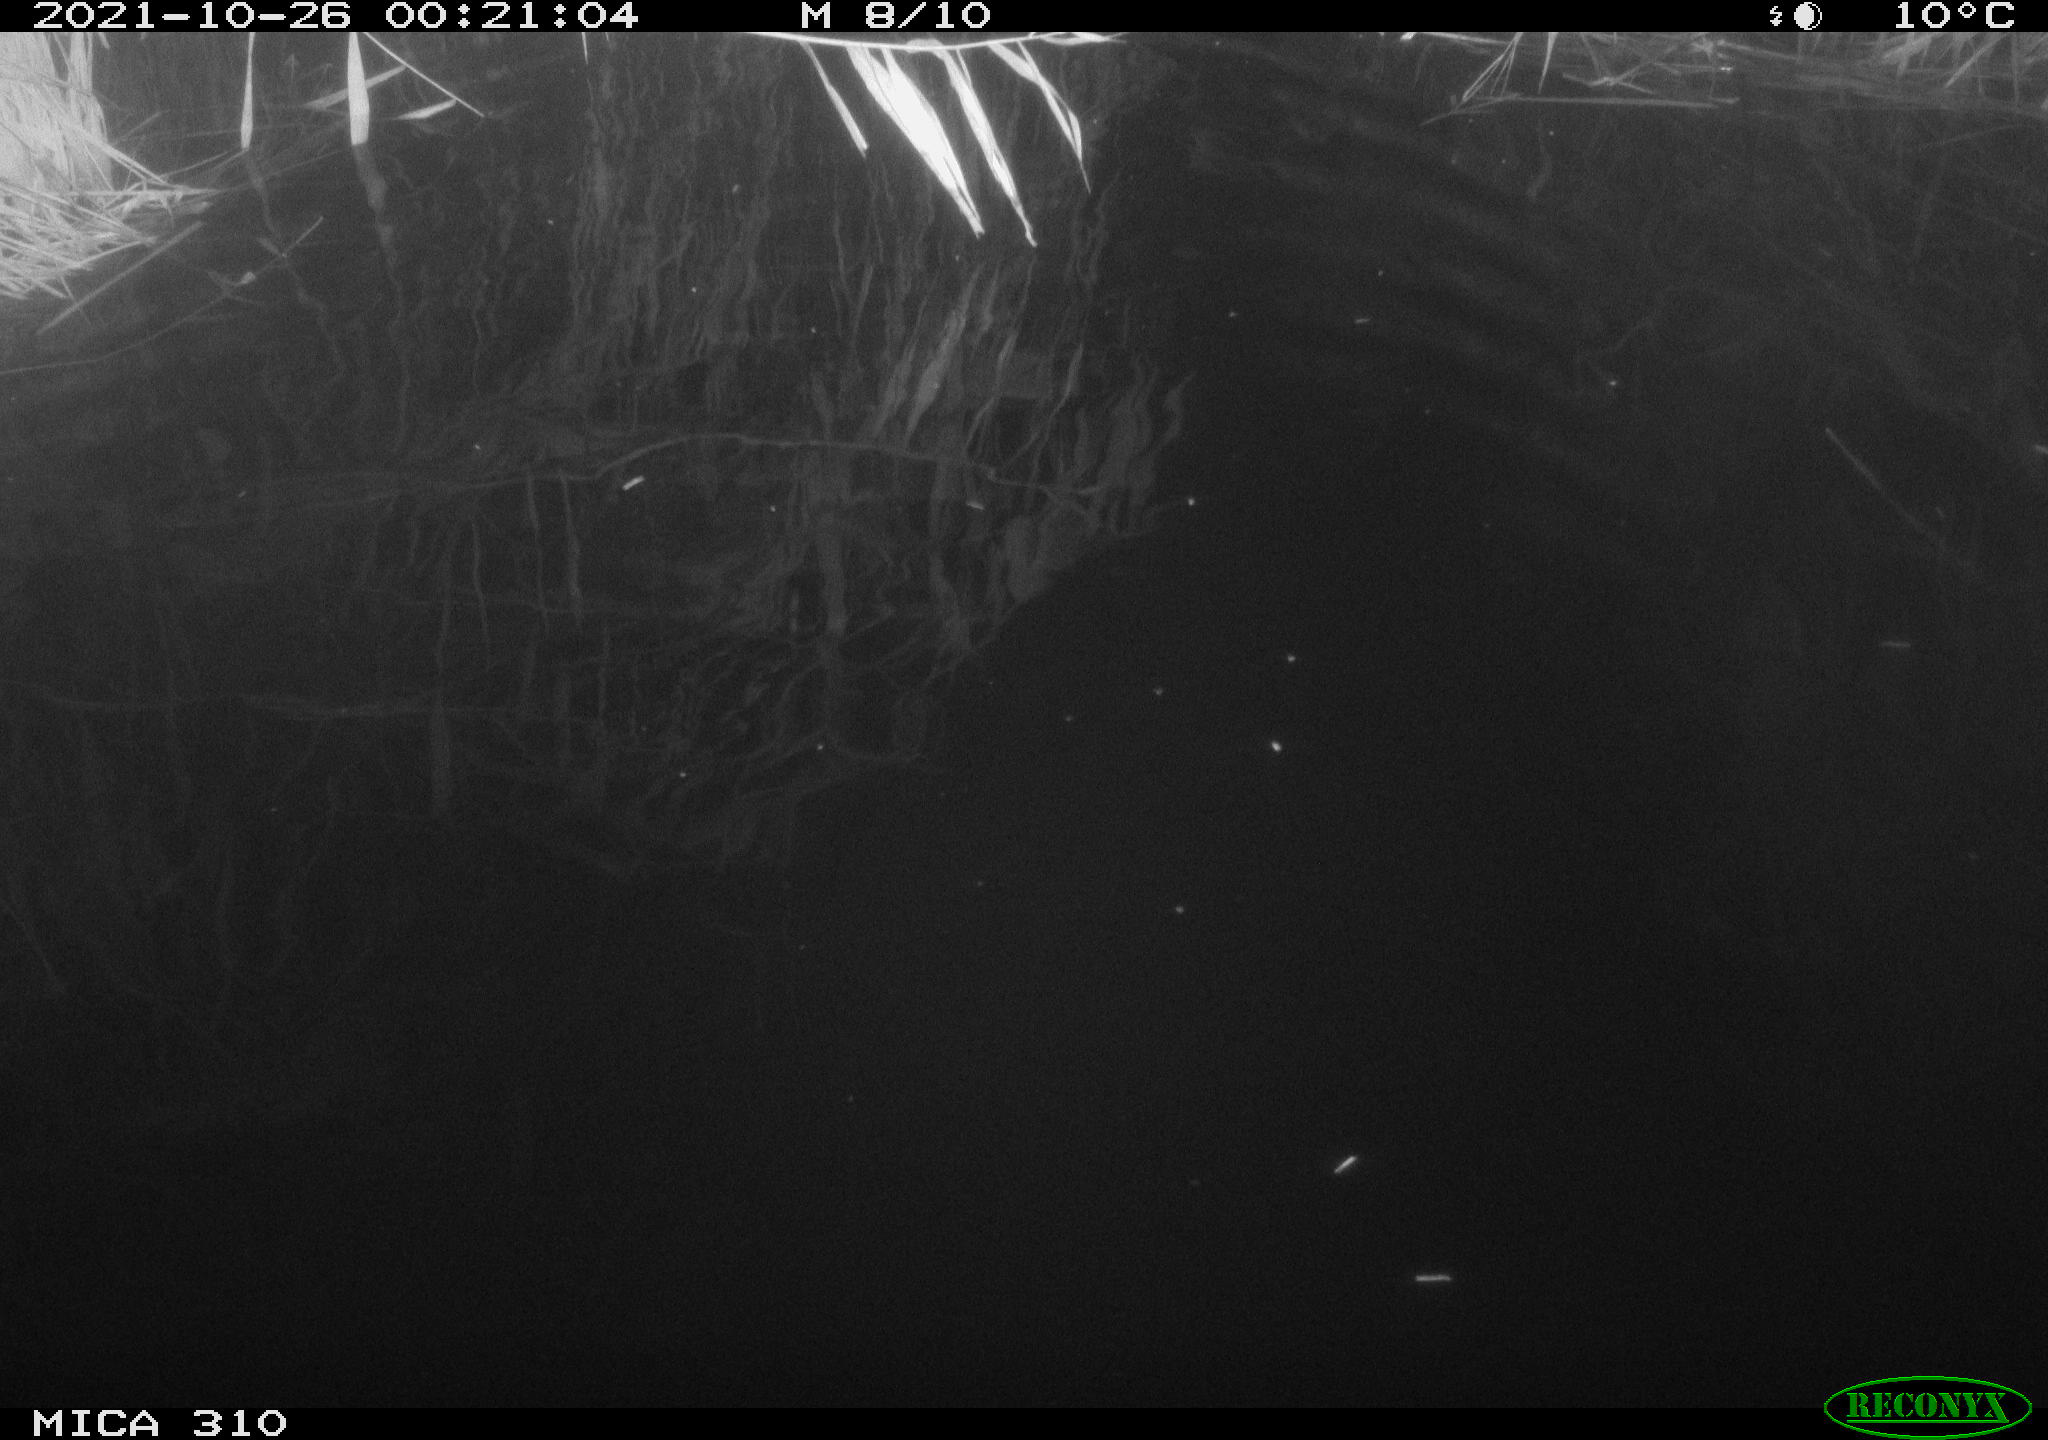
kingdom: Animalia
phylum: Chordata
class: Mammalia
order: Rodentia
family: Muridae
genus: Rattus
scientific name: Rattus norvegicus
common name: Brown rat
